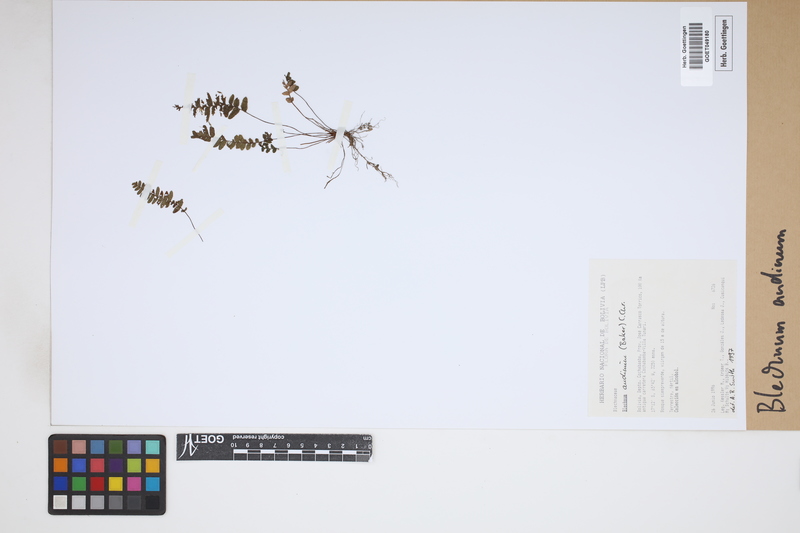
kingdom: Plantae
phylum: Tracheophyta
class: Polypodiopsida
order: Polypodiales
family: Blechnaceae
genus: Austroblechnum
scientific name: Austroblechnum andinum
